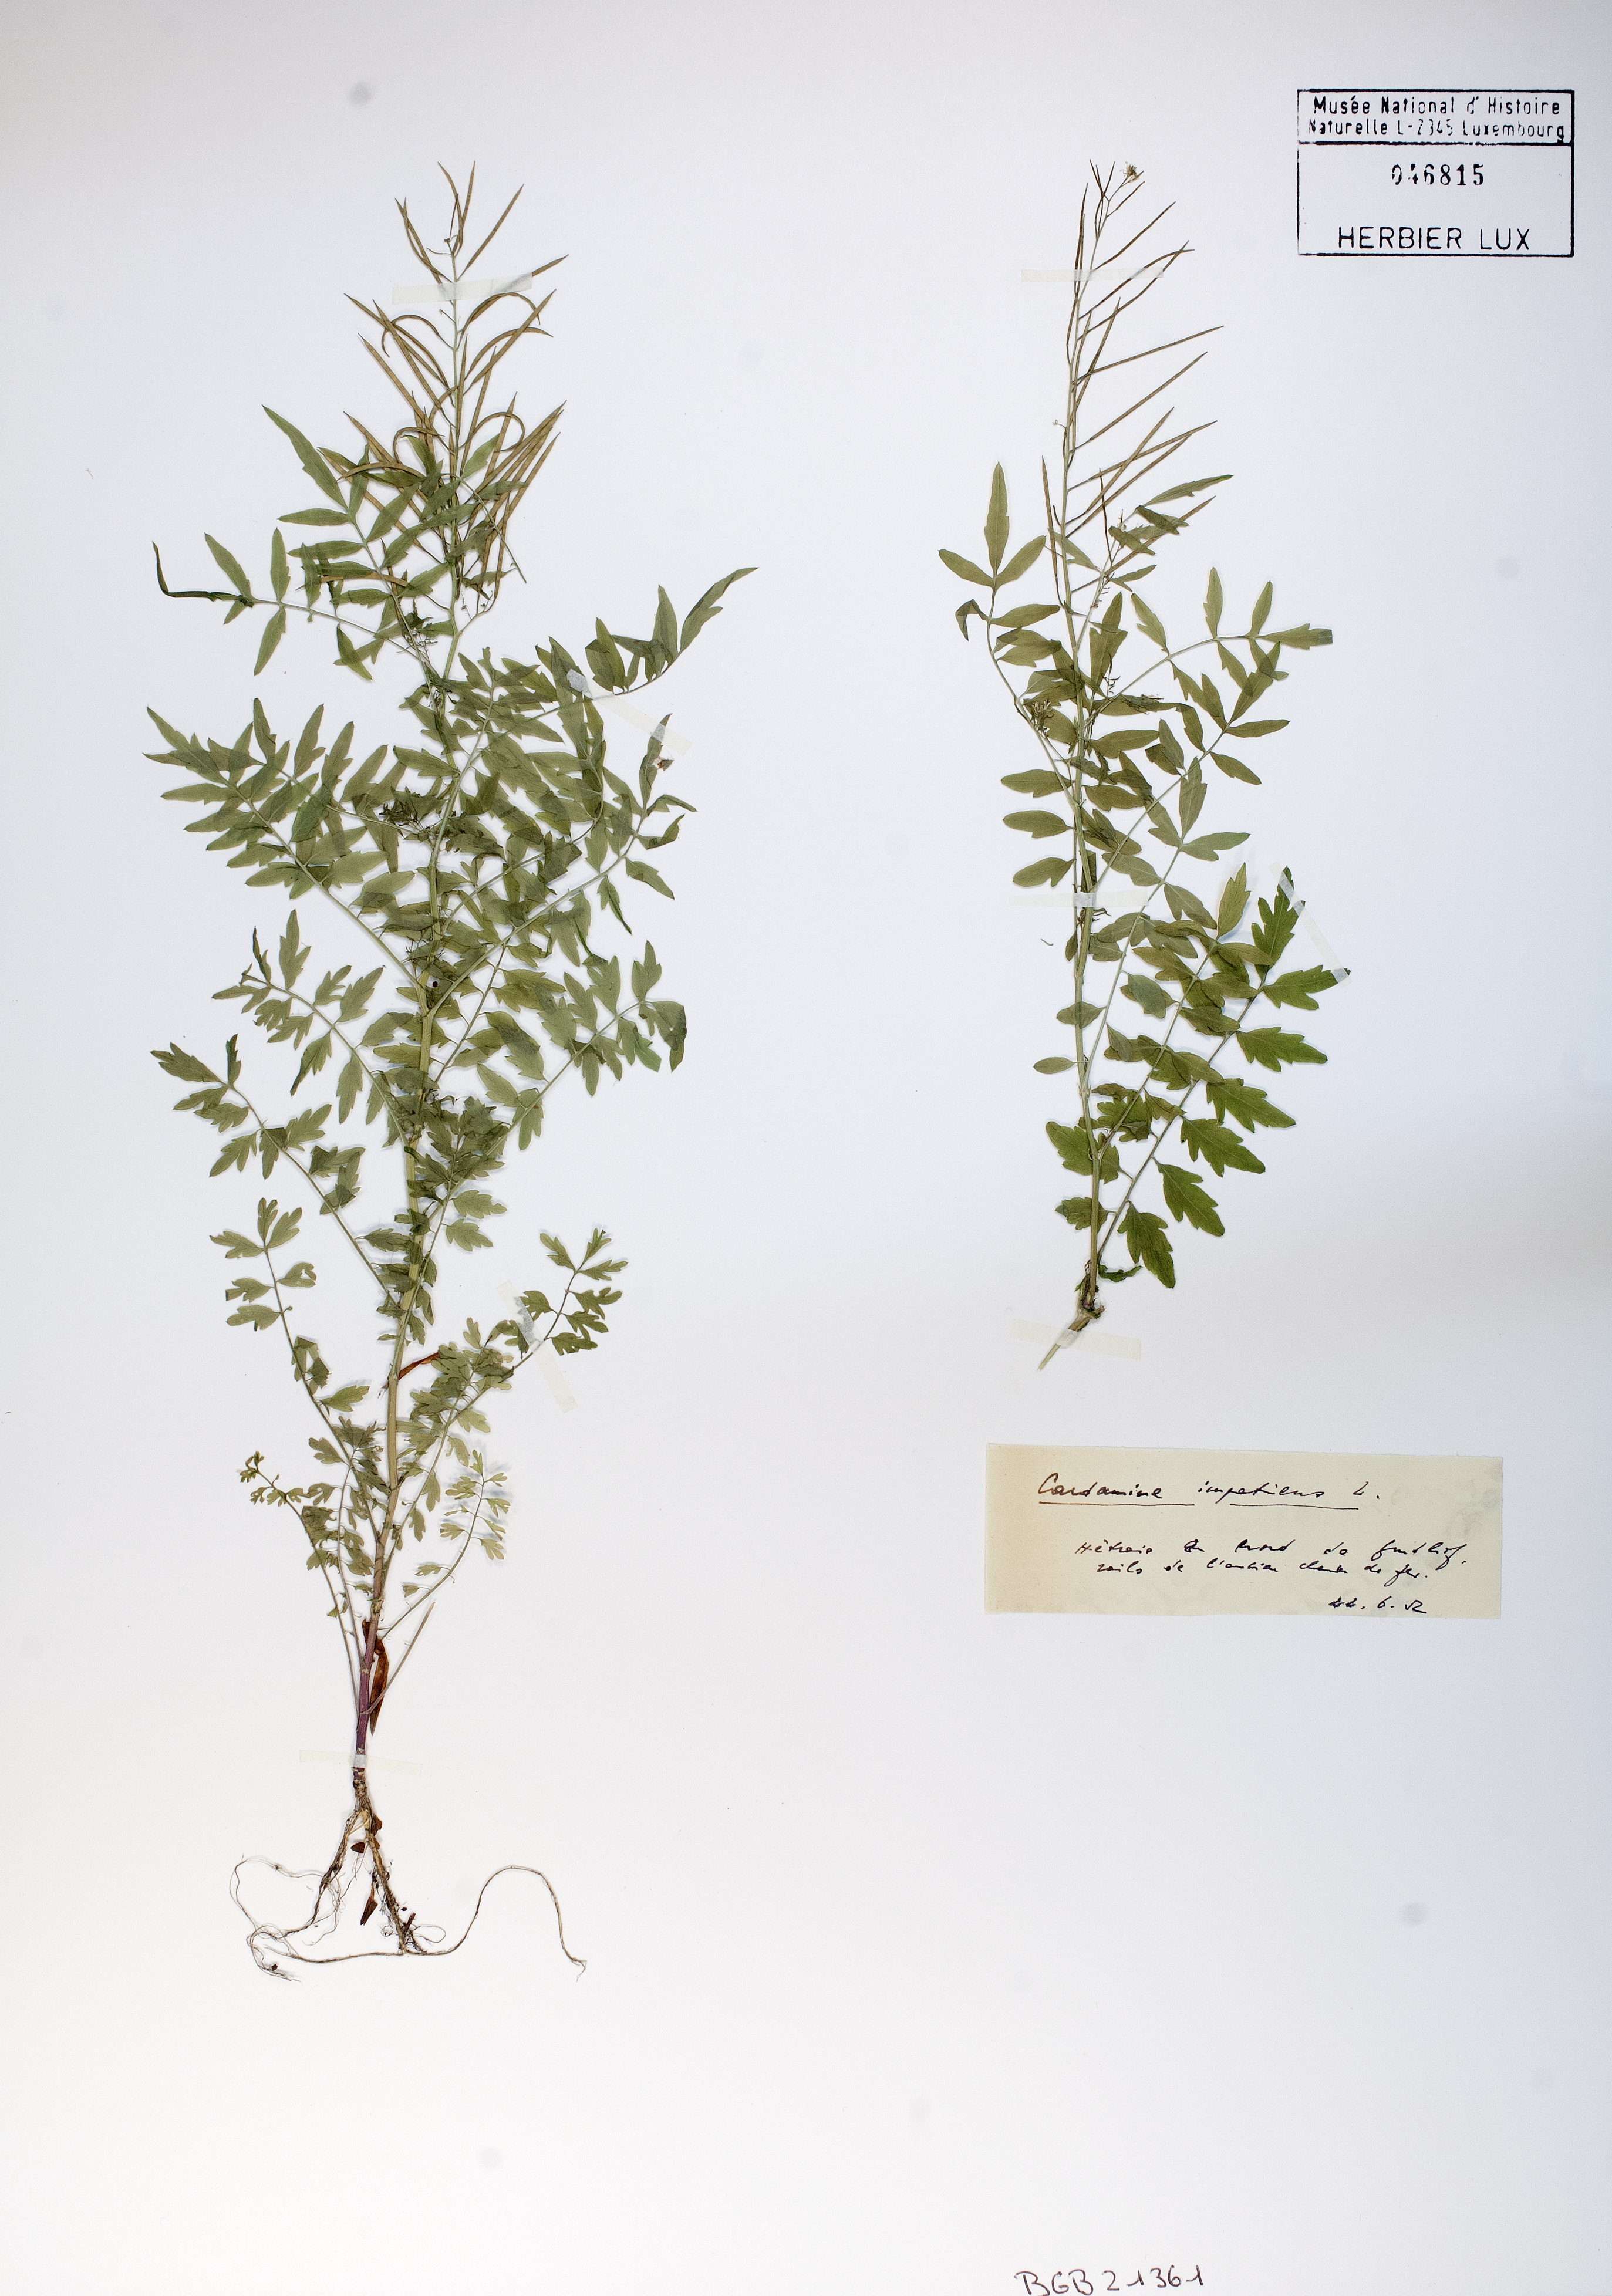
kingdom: Plantae
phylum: Tracheophyta
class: Magnoliopsida
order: Brassicales
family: Brassicaceae
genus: Cardamine
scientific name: Cardamine impatiens
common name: Narrow-leaved bitter-cress
